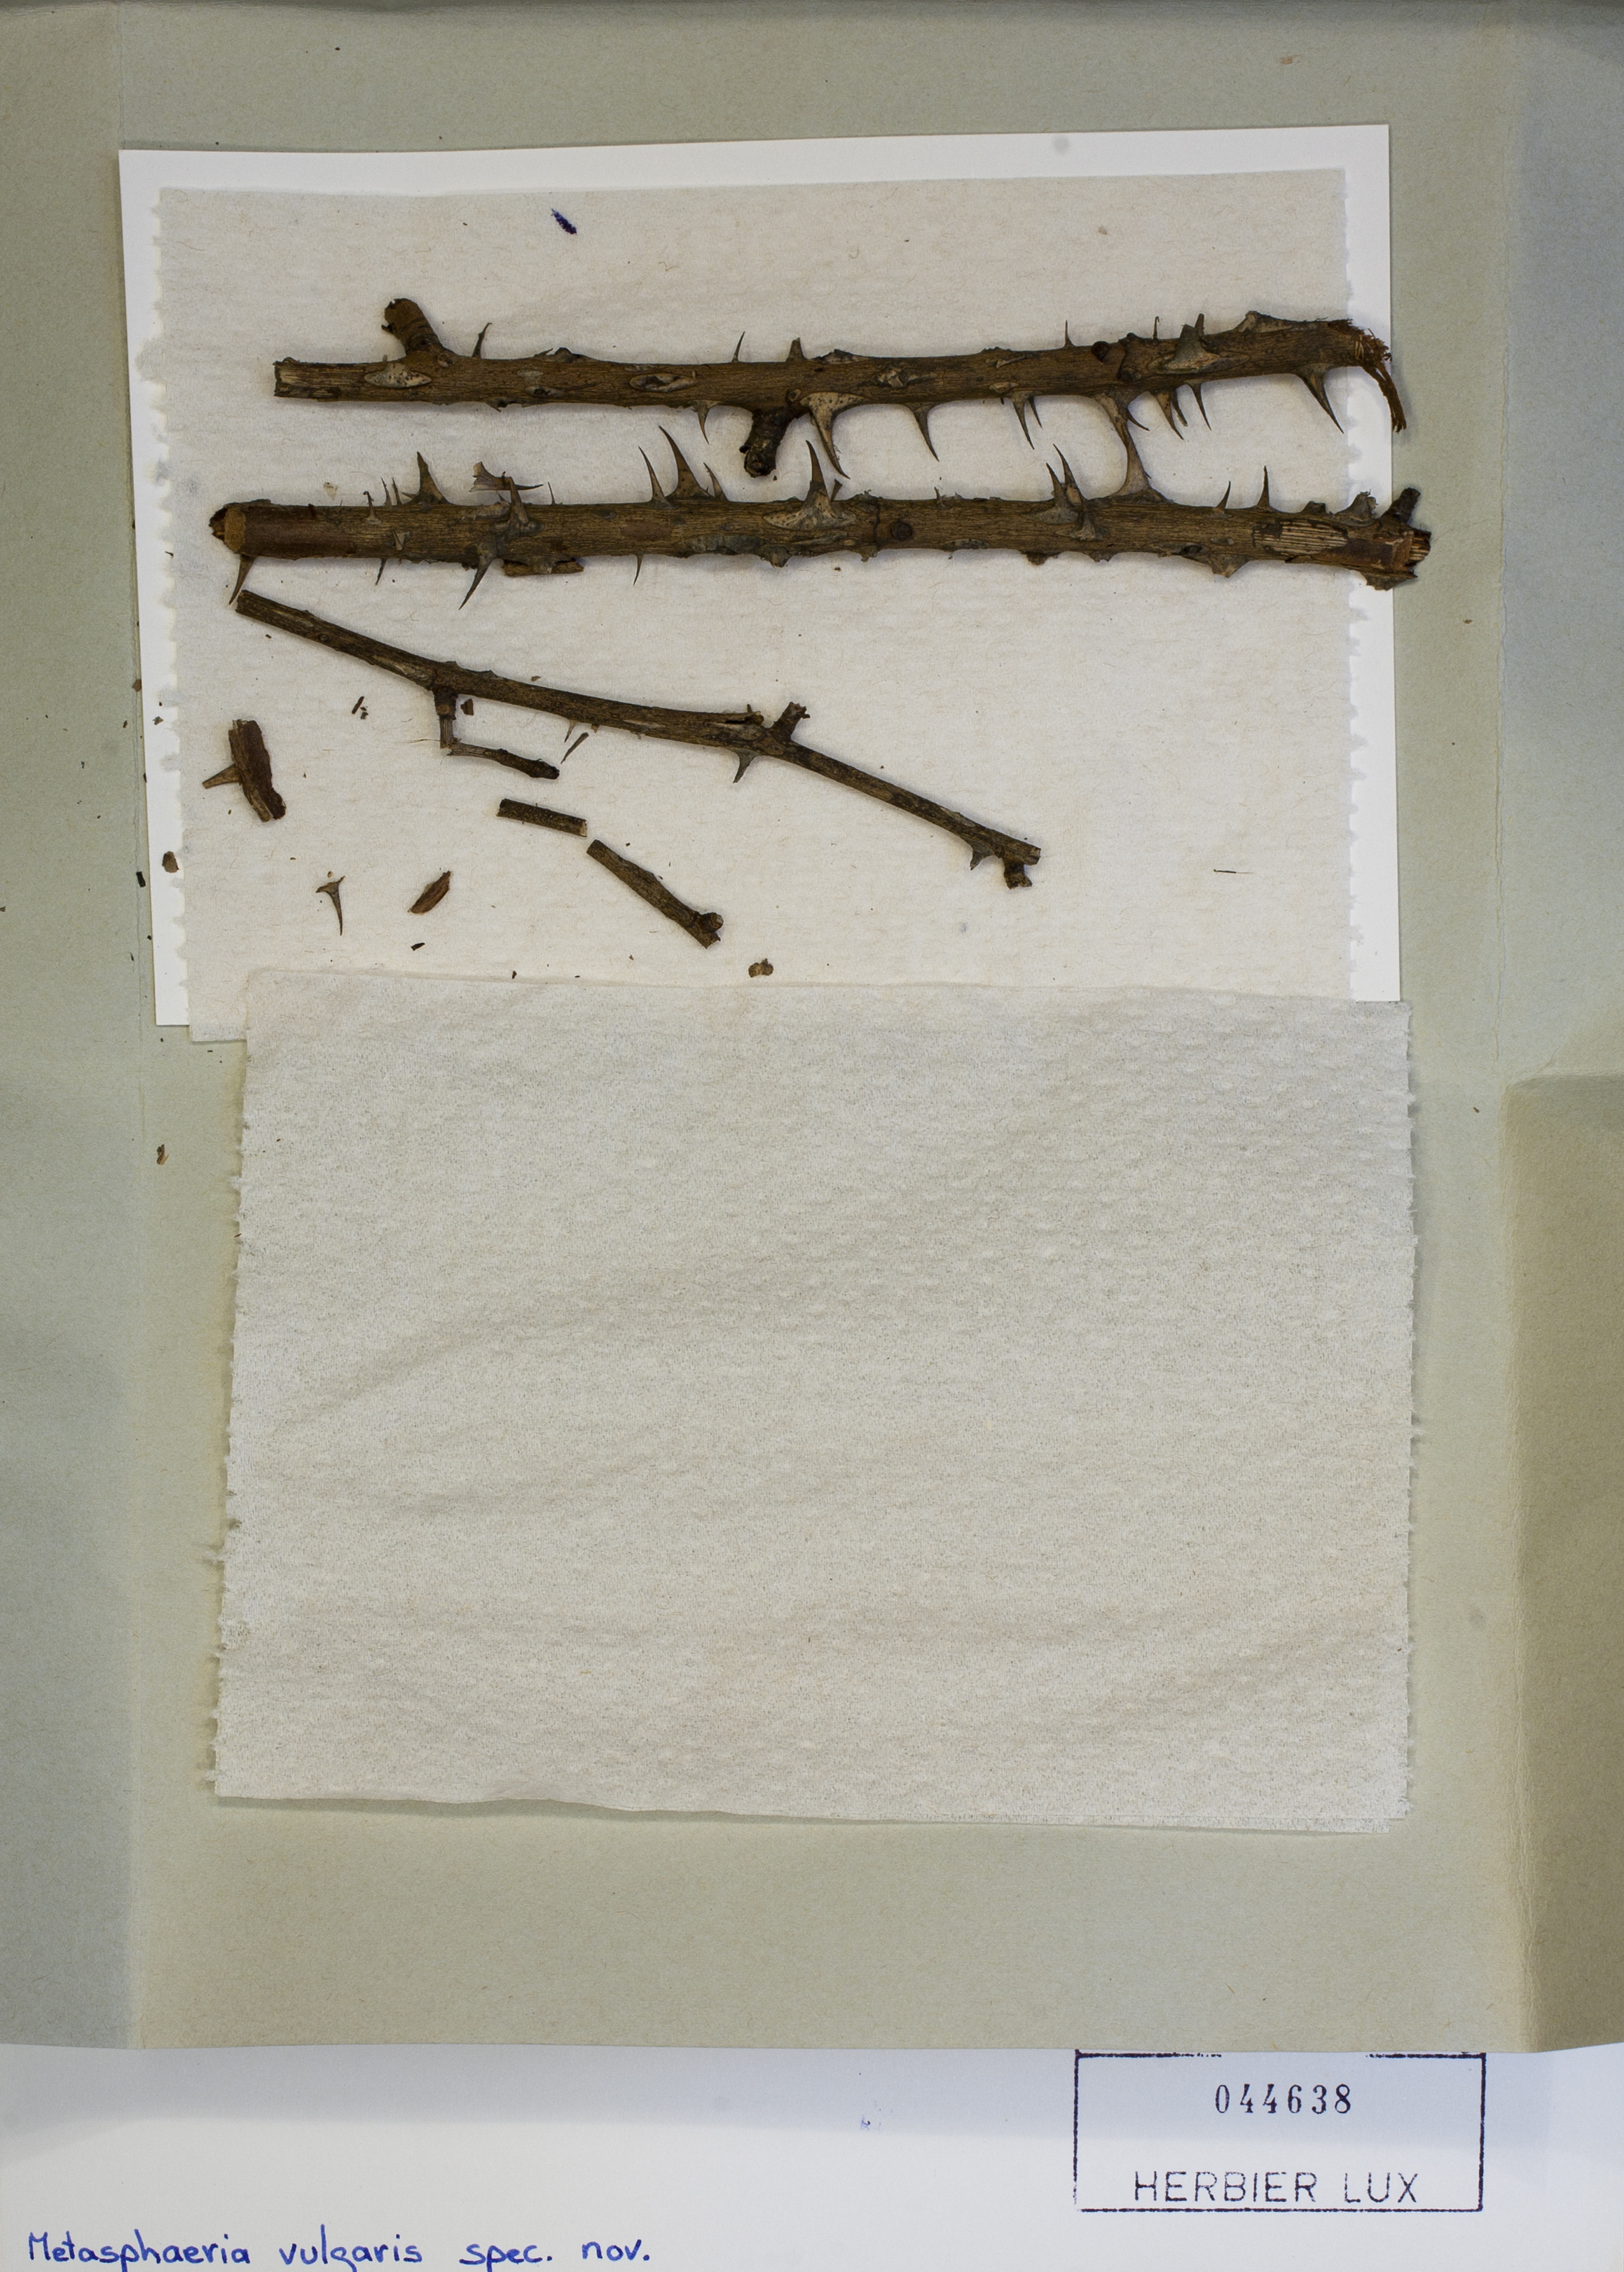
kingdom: Fungi
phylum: Ascomycota
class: Dothideomycetes
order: Dothideales
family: Saccotheciaceae
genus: Metasphaeria
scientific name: Metasphaeria vulgaris
